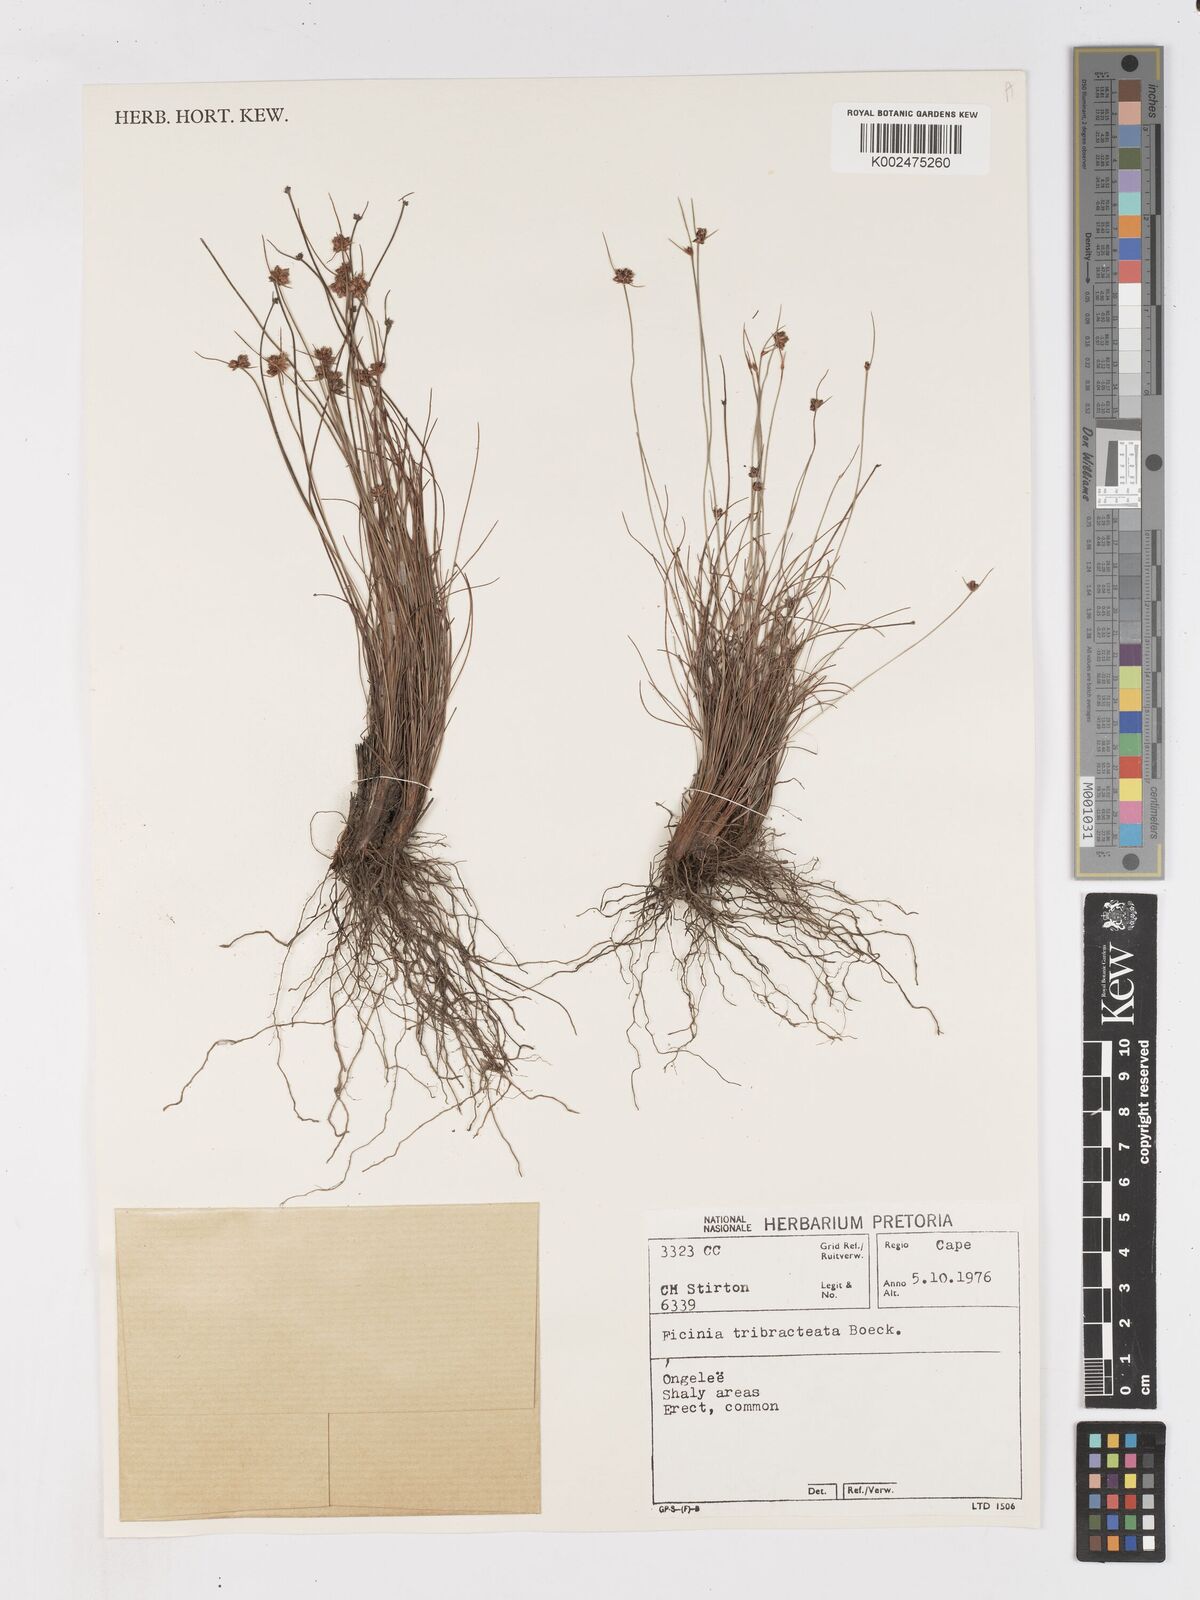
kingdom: Plantae
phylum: Tracheophyta
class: Liliopsida
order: Poales
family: Cyperaceae
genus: Ficinia
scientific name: Ficinia tristachya
